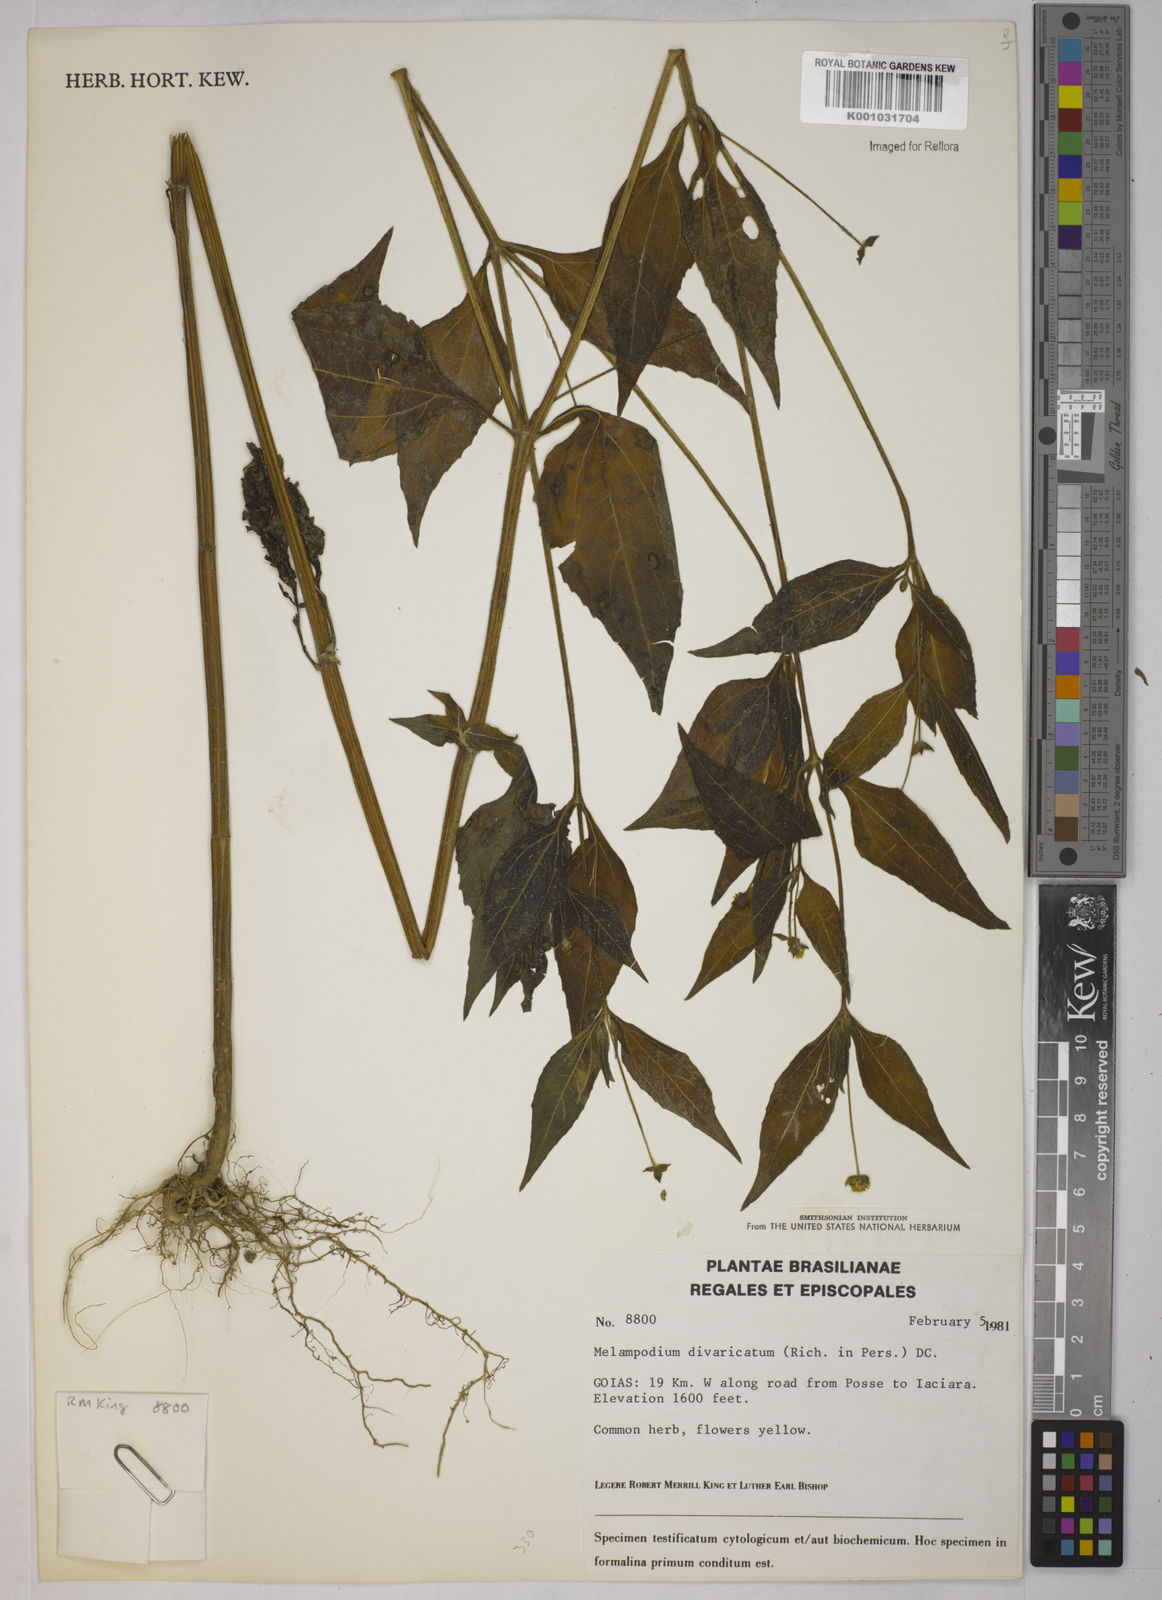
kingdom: Plantae
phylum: Tracheophyta
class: Magnoliopsida
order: Asterales
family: Asteraceae
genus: Melampodium
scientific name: Melampodium divaricatum
